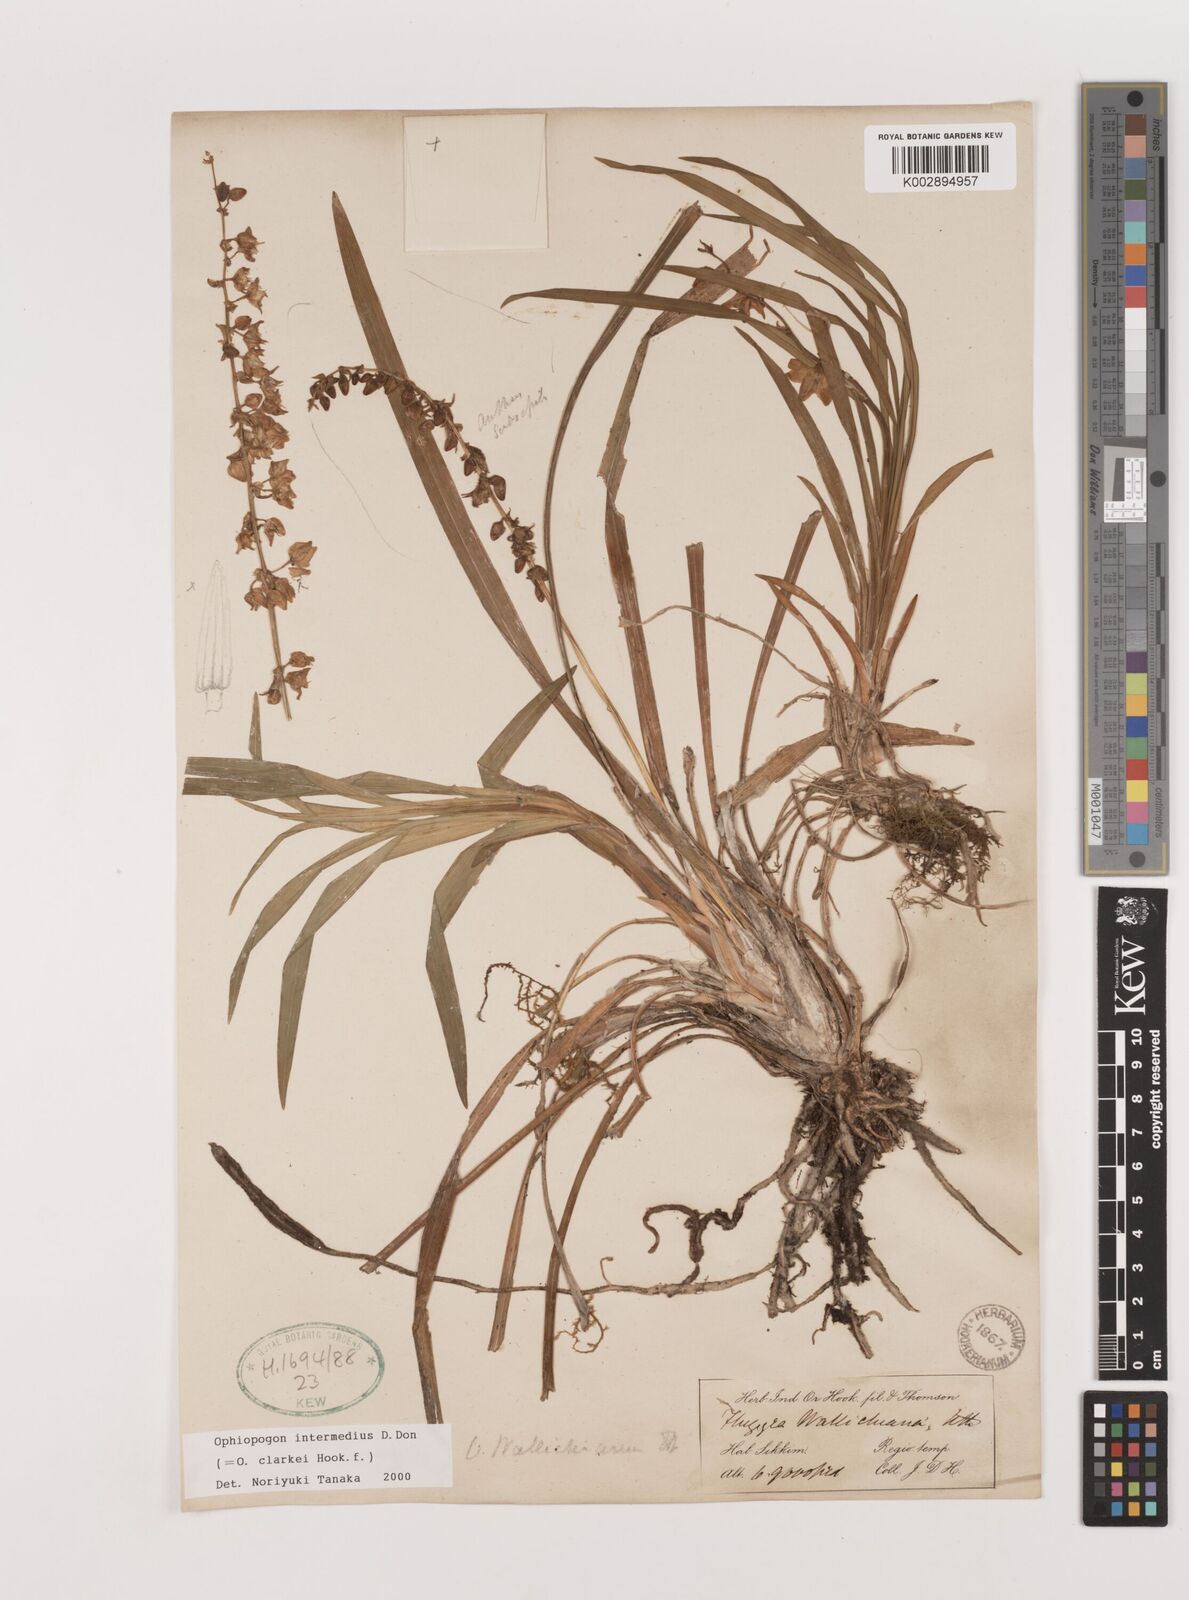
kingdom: Plantae
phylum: Tracheophyta
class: Liliopsida
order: Asparagales
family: Asparagaceae
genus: Ophiopogon
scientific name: Ophiopogon intermedius
